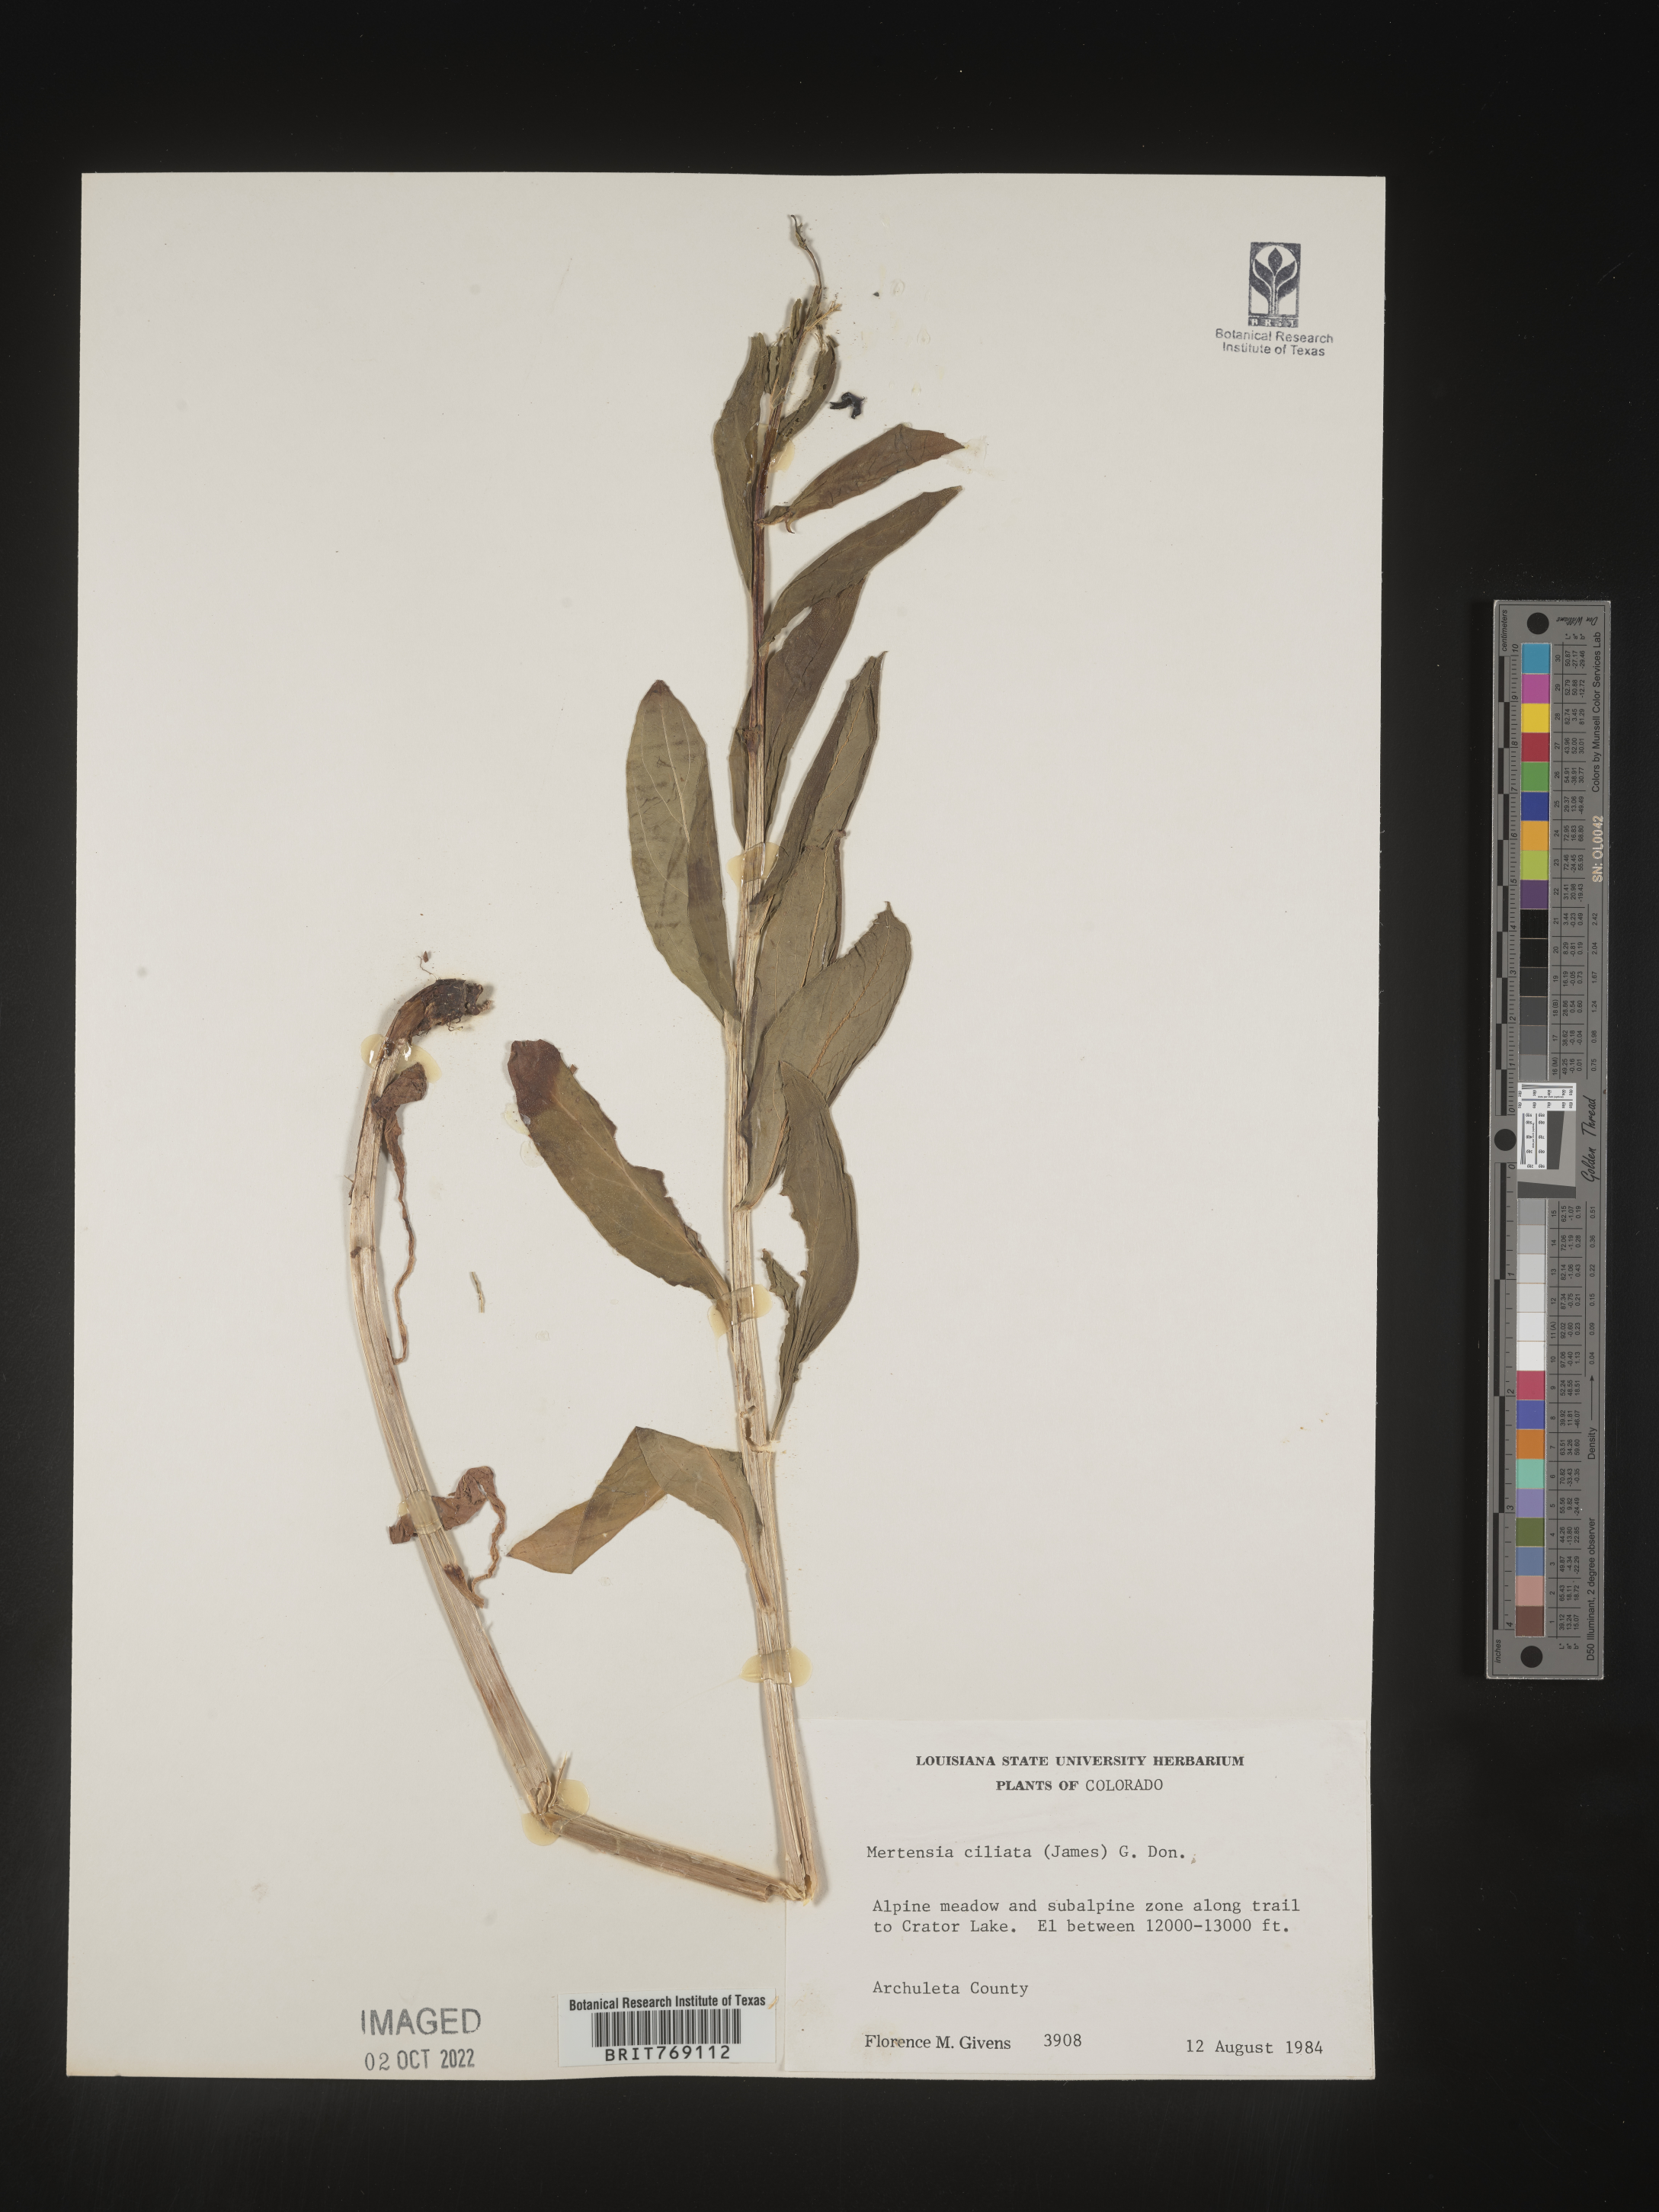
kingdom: Plantae
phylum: Tracheophyta
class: Magnoliopsida
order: Boraginales
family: Boraginaceae
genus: Mertensia
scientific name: Mertensia
